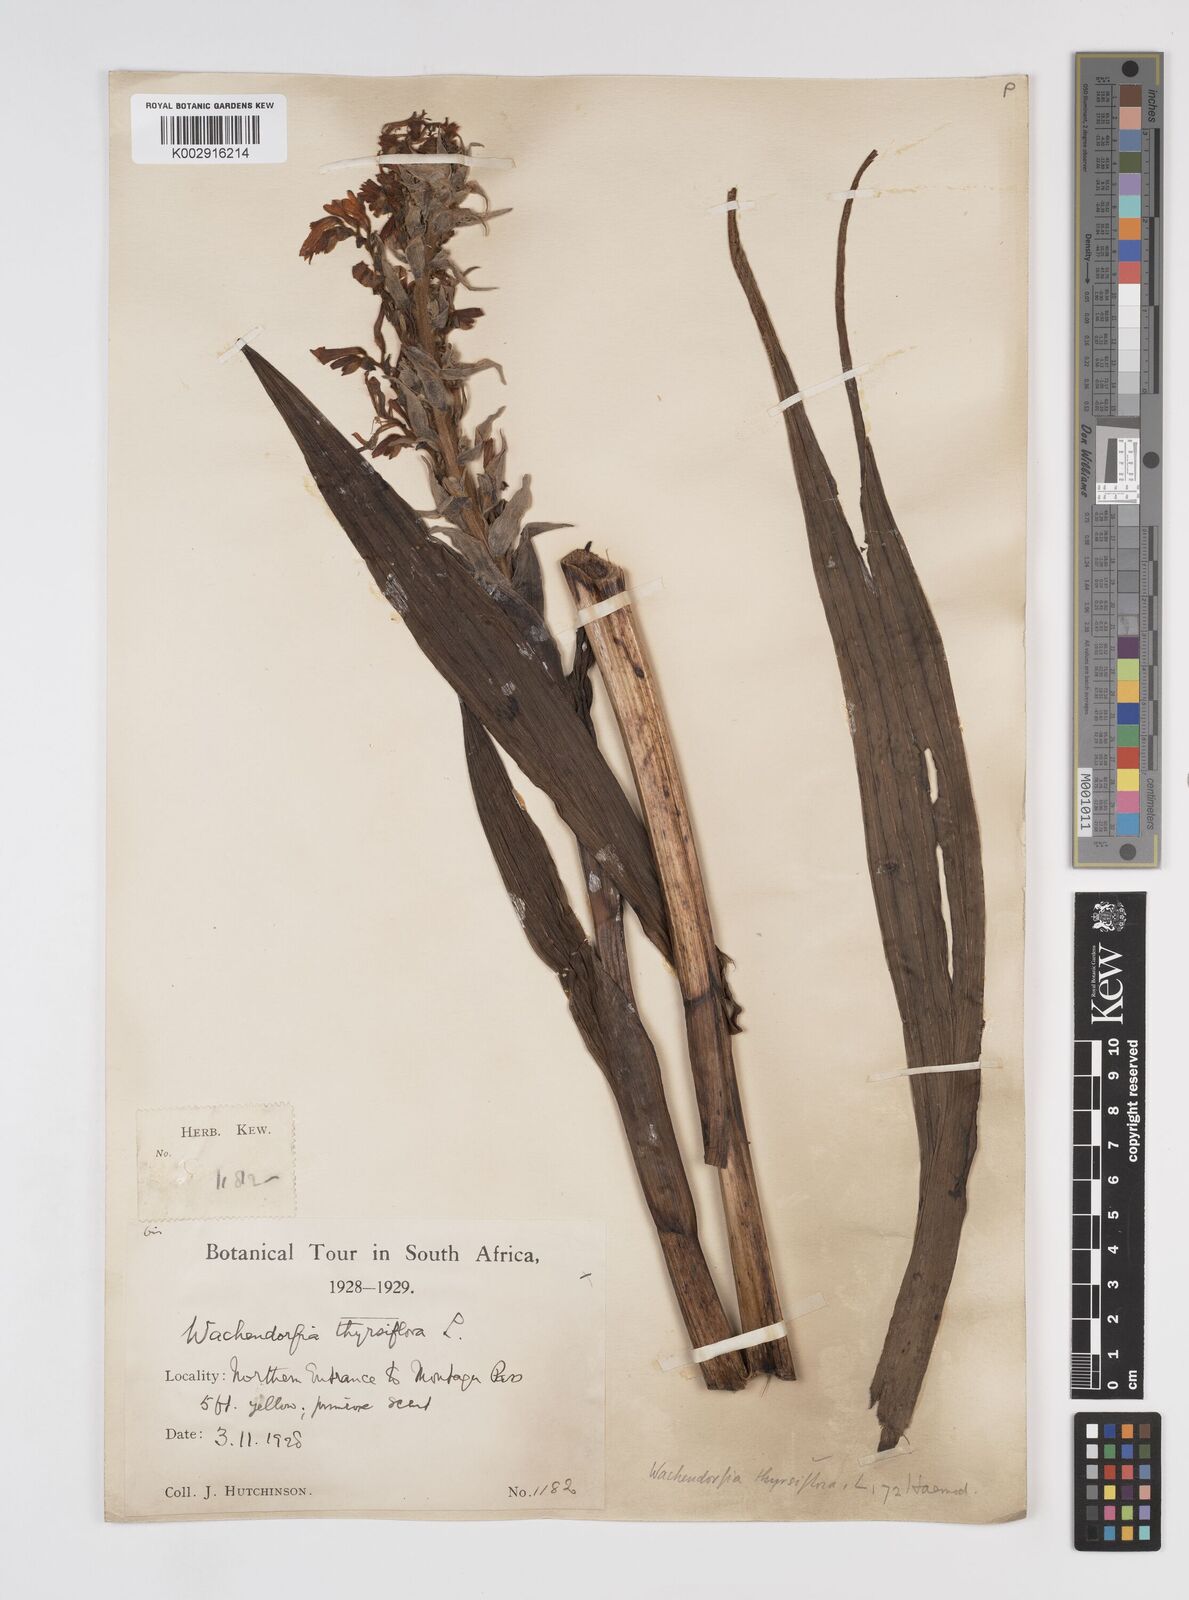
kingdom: Plantae
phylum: Tracheophyta
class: Liliopsida
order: Commelinales
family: Haemodoraceae
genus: Wachendorfia
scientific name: Wachendorfia thyrsiflora
